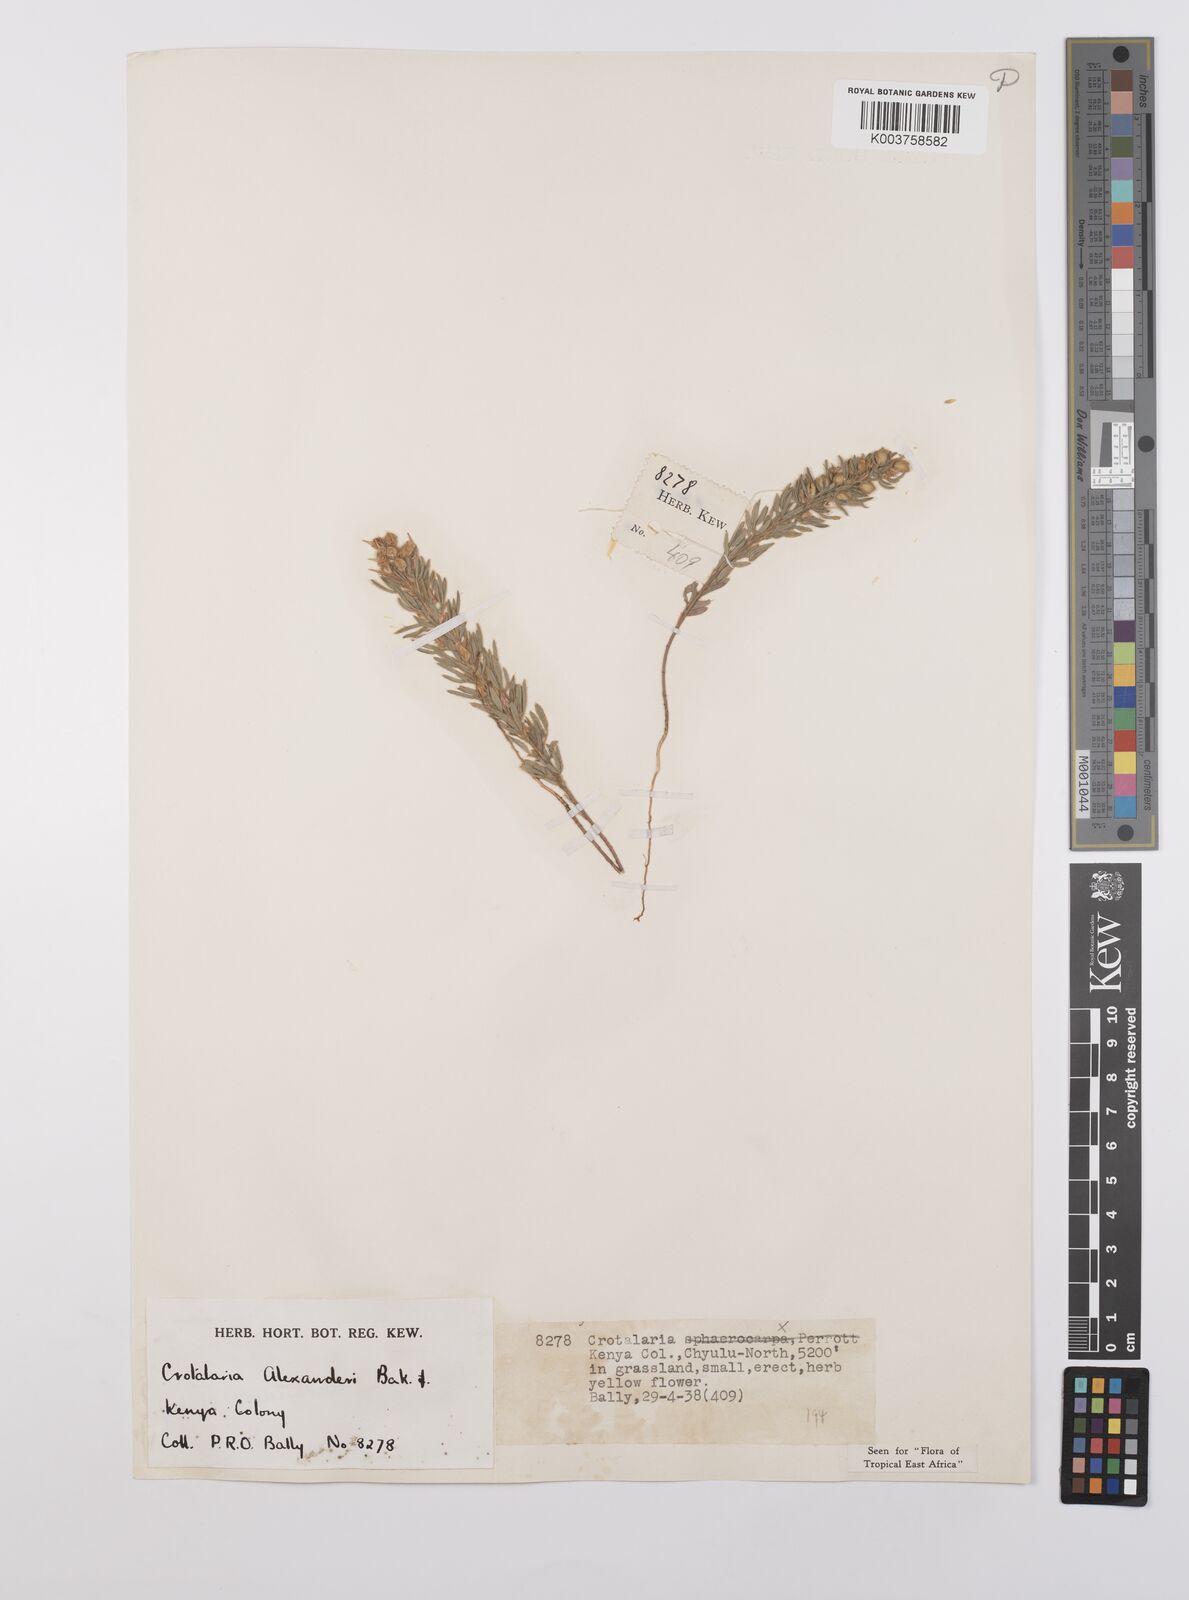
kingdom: Plantae
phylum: Tracheophyta
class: Magnoliopsida
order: Fabales
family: Fabaceae
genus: Crotalaria
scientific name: Crotalaria alexandri
